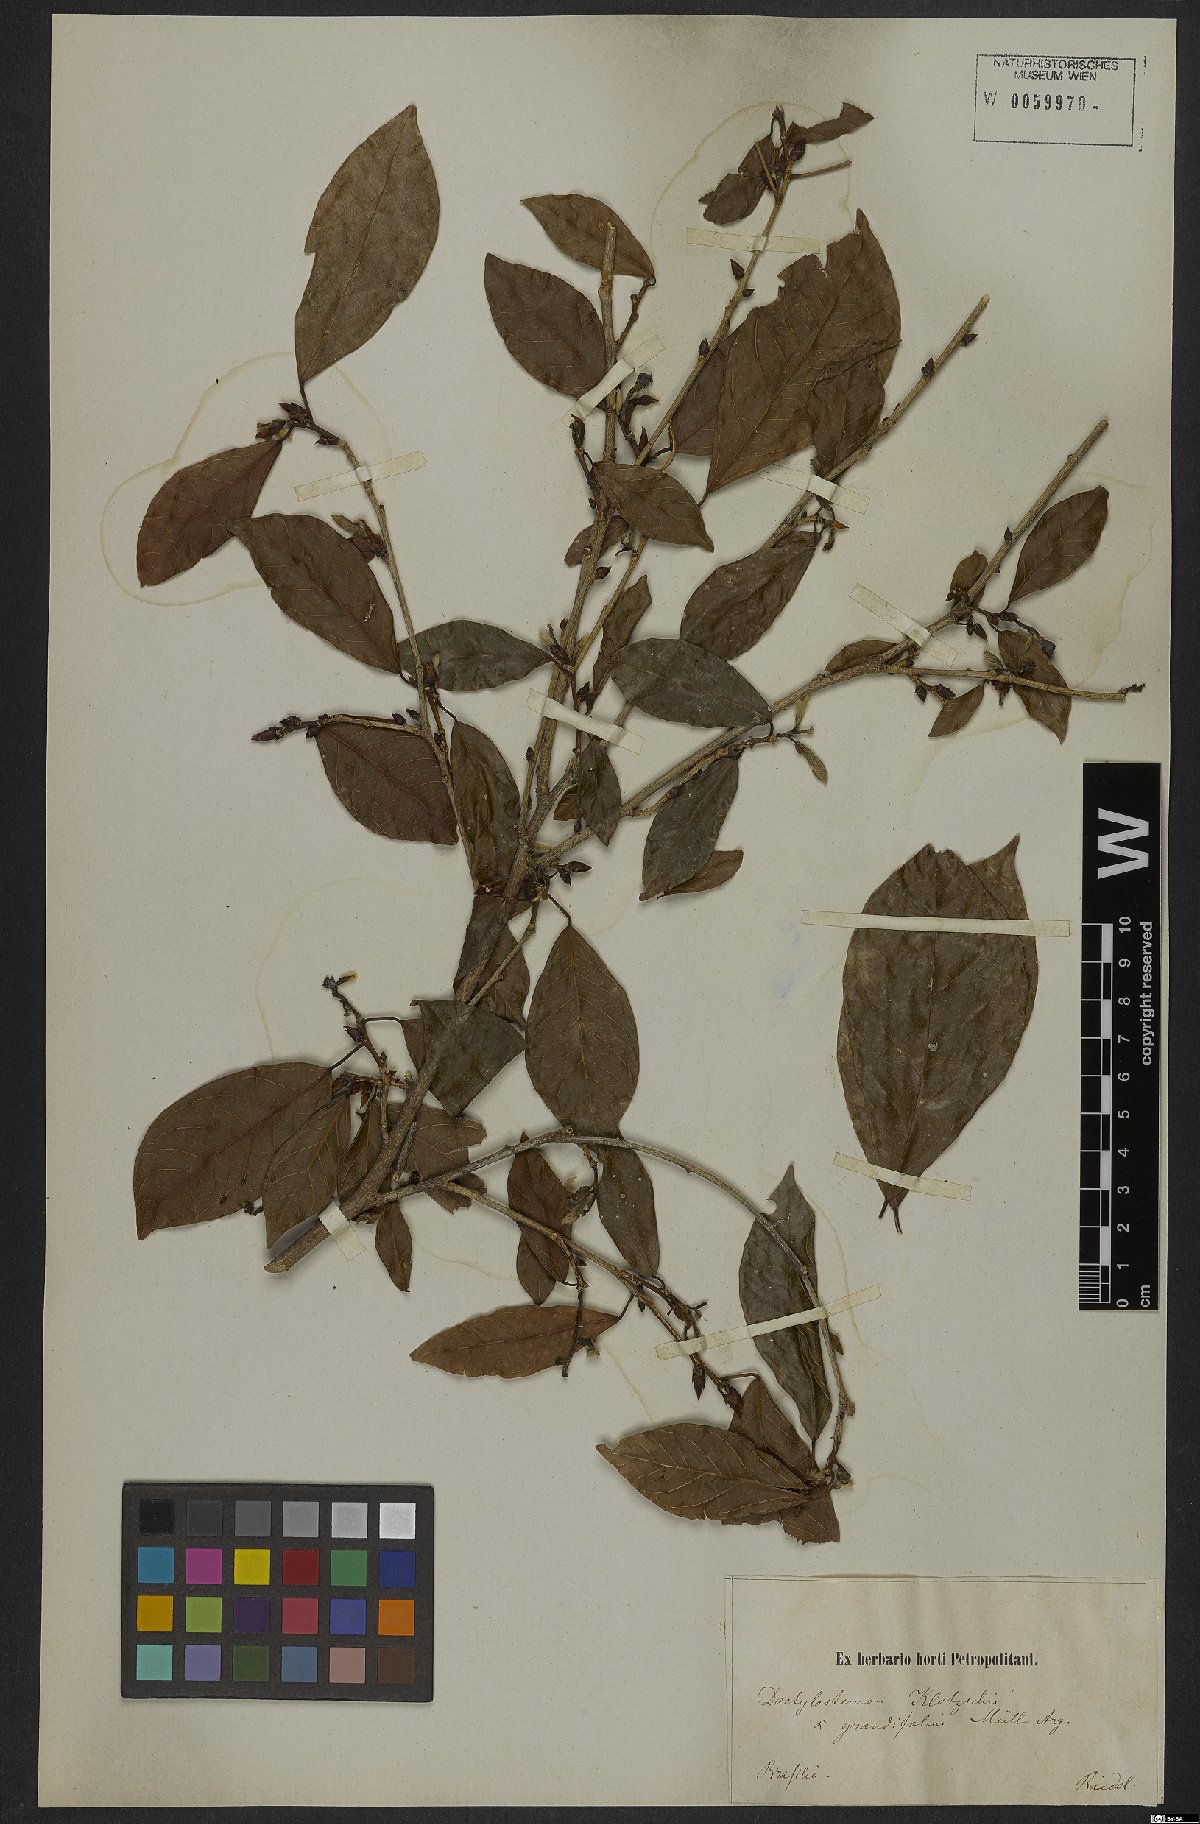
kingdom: Plantae
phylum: Tracheophyta
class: Magnoliopsida
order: Malpighiales
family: Euphorbiaceae
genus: Actinostemon
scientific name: Actinostemon klotzschii
